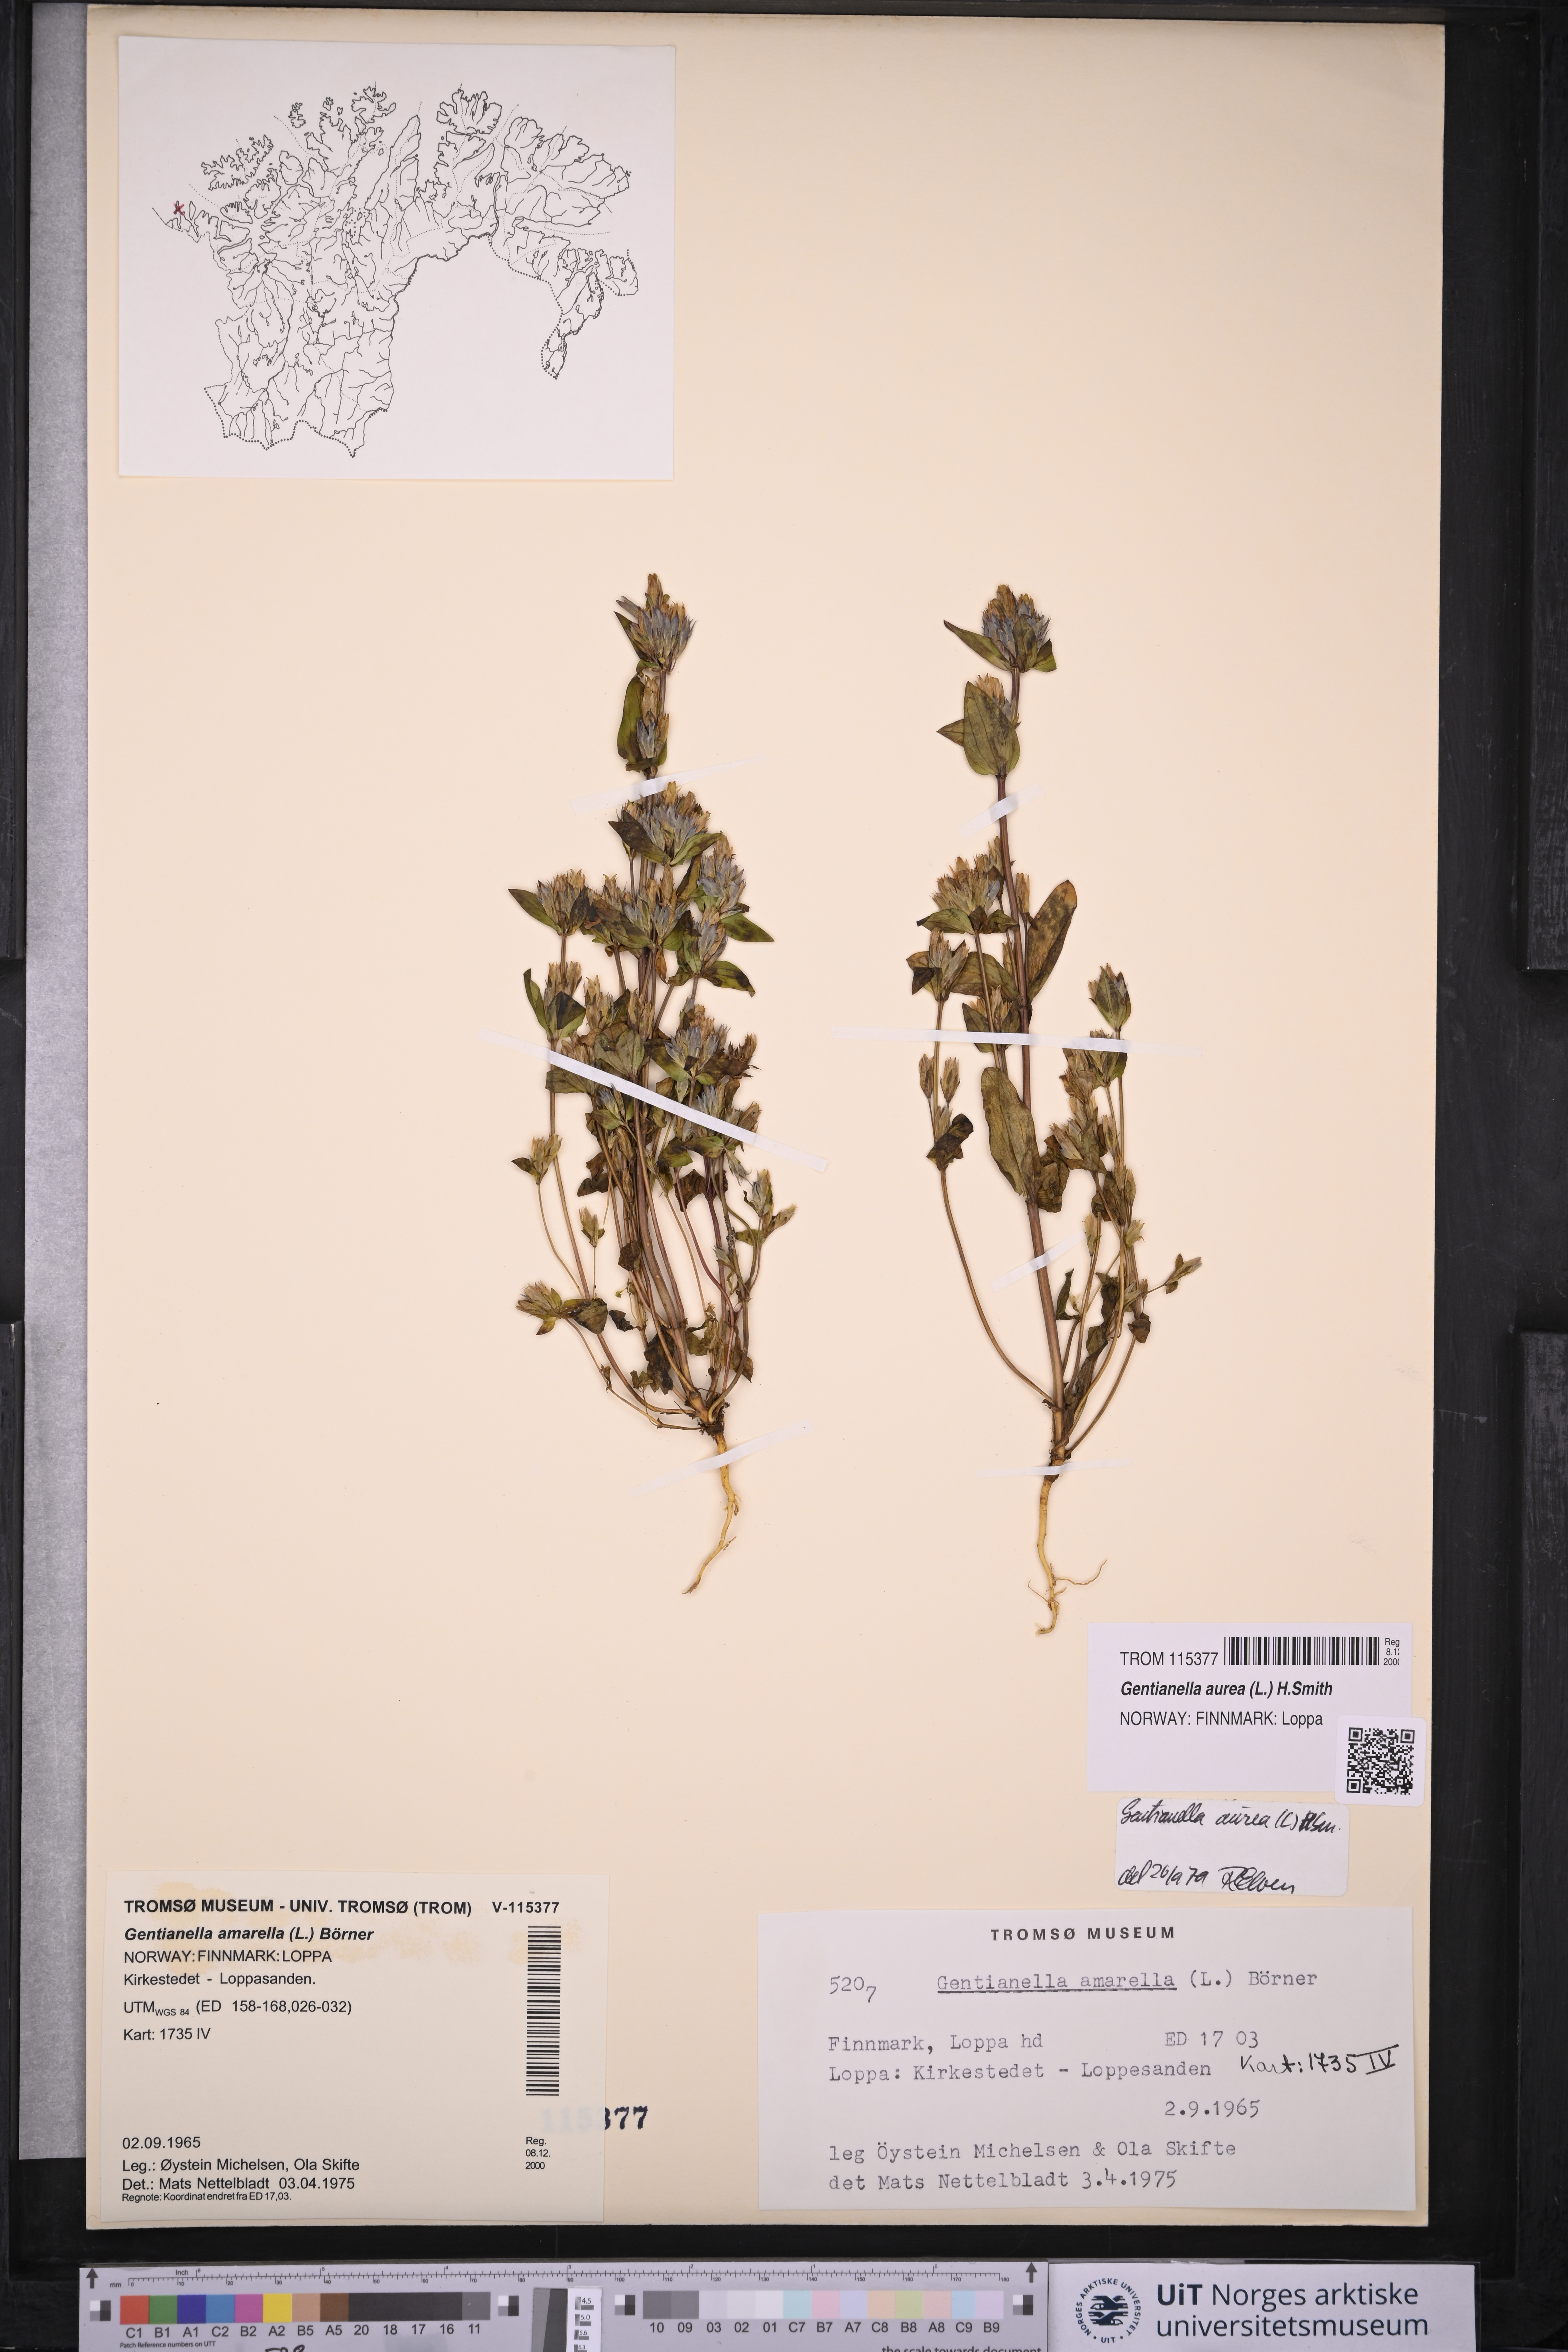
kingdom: Plantae
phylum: Tracheophyta
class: Magnoliopsida
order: Gentianales
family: Gentianaceae
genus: Gentianella
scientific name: Gentianella aurea
